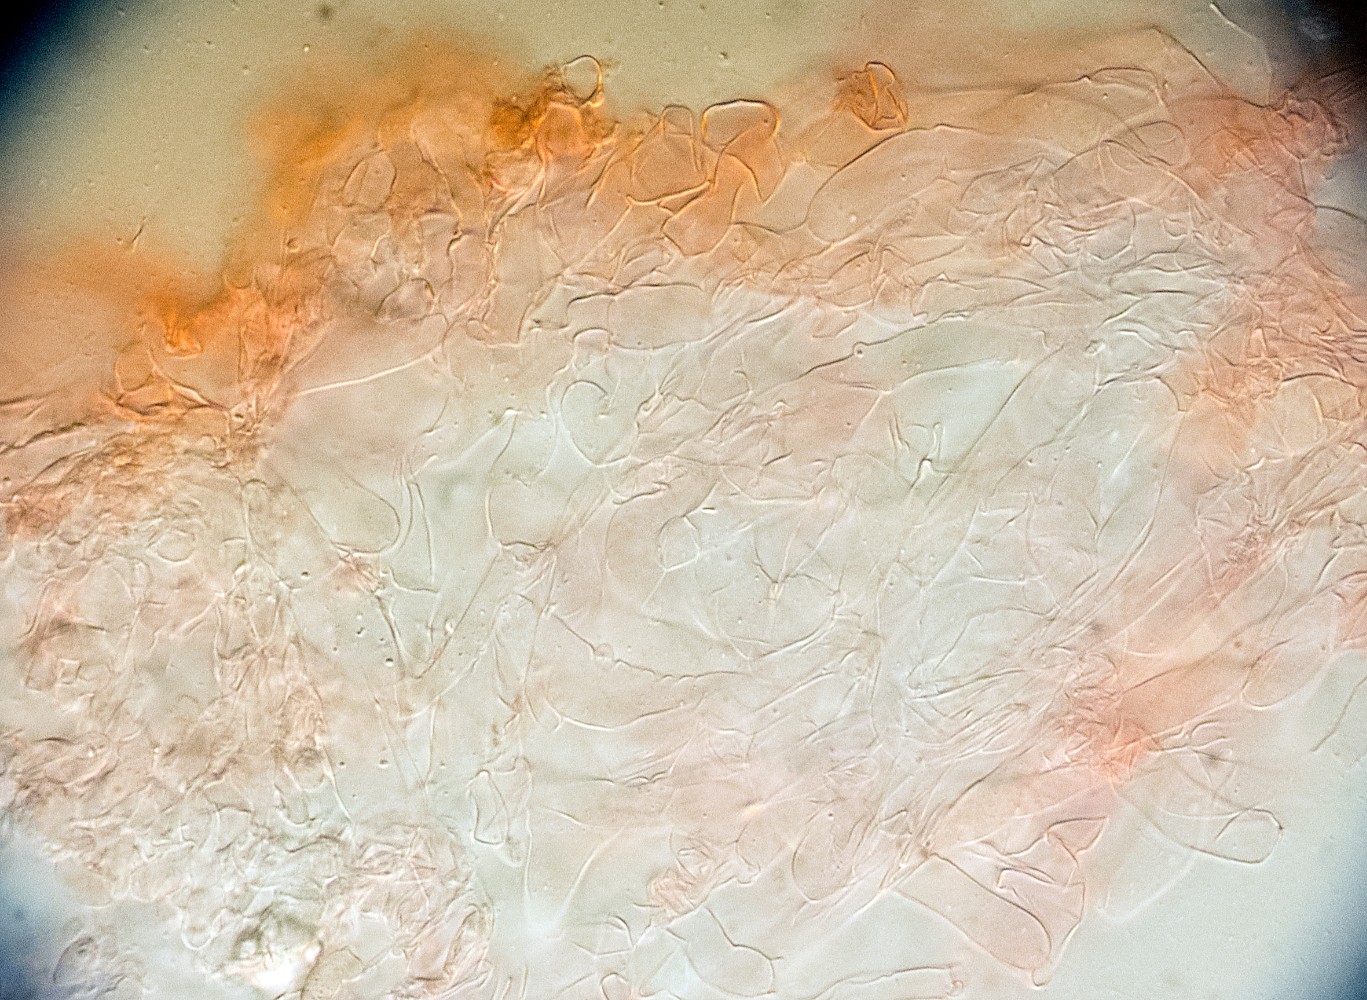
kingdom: Fungi
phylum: Basidiomycota
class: Agaricomycetes
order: Agaricales
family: Tricholomataceae
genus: Omphalina
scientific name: Omphalina mutila
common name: hvid navlehat
